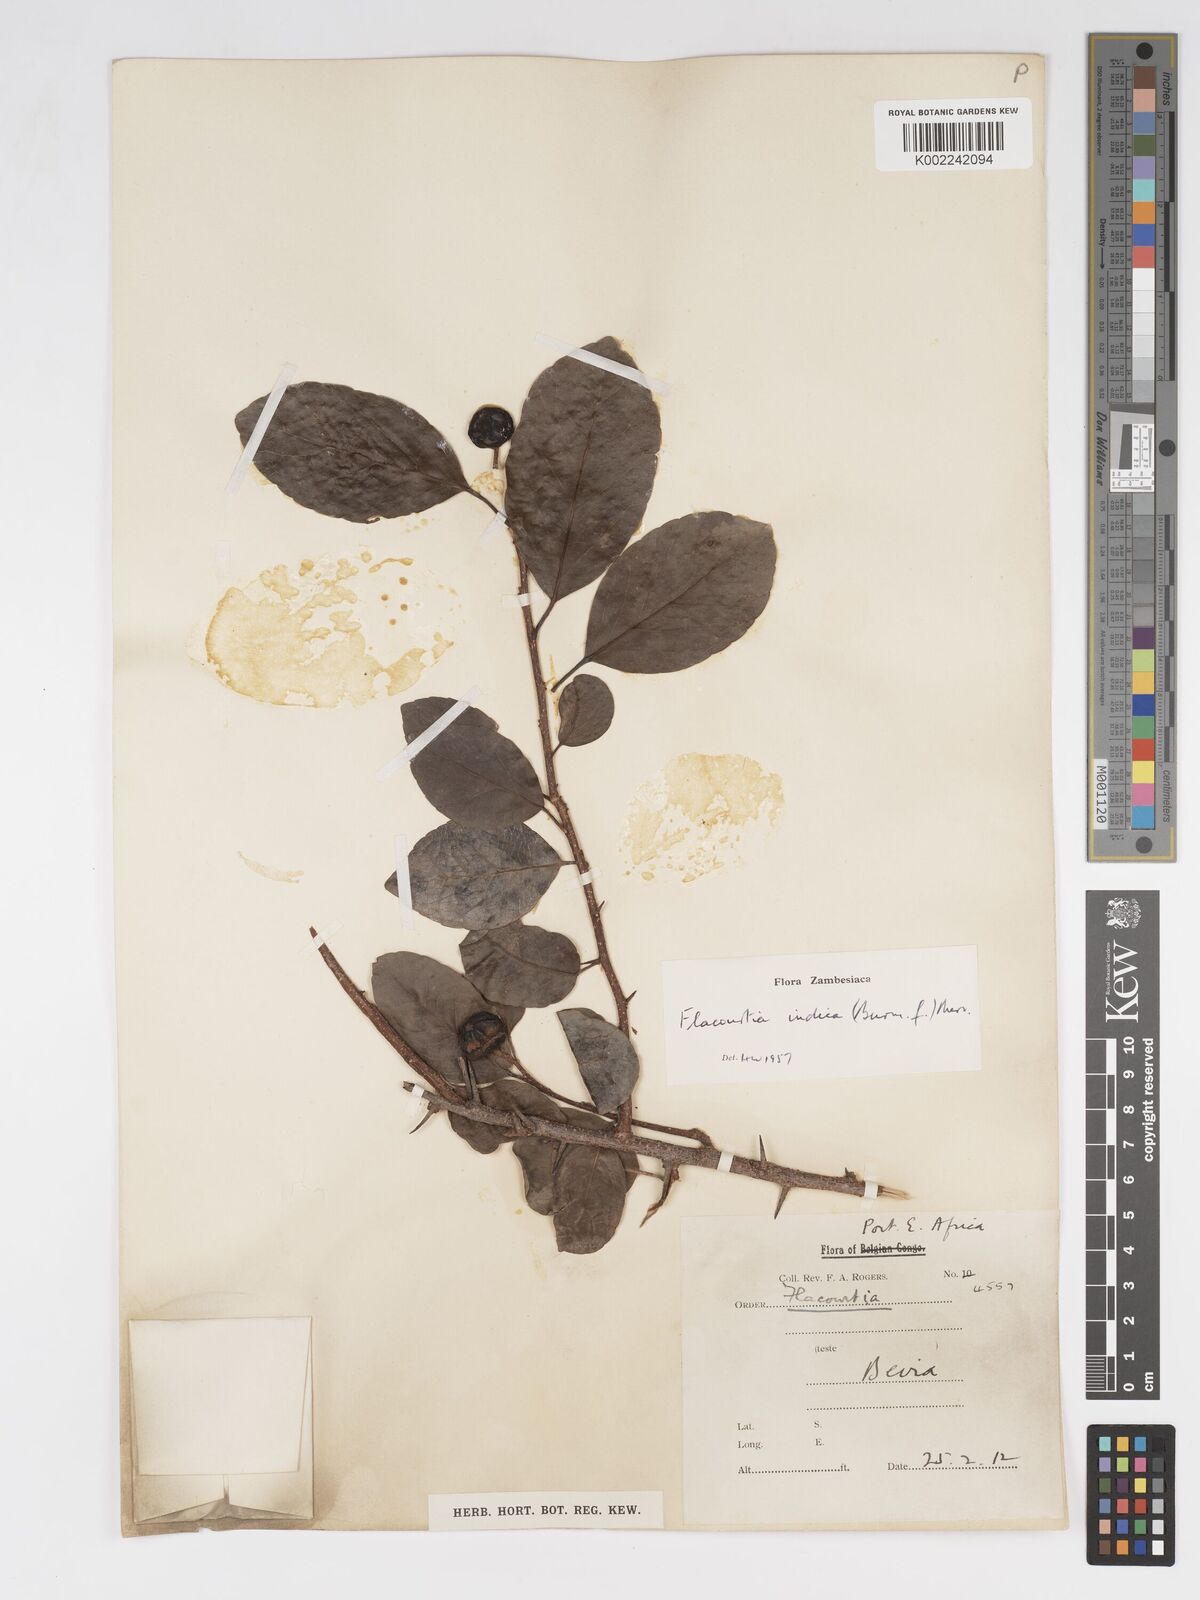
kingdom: Plantae
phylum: Tracheophyta
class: Magnoliopsida
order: Malpighiales
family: Salicaceae
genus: Flacourtia
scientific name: Flacourtia indica
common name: Governor's plum
